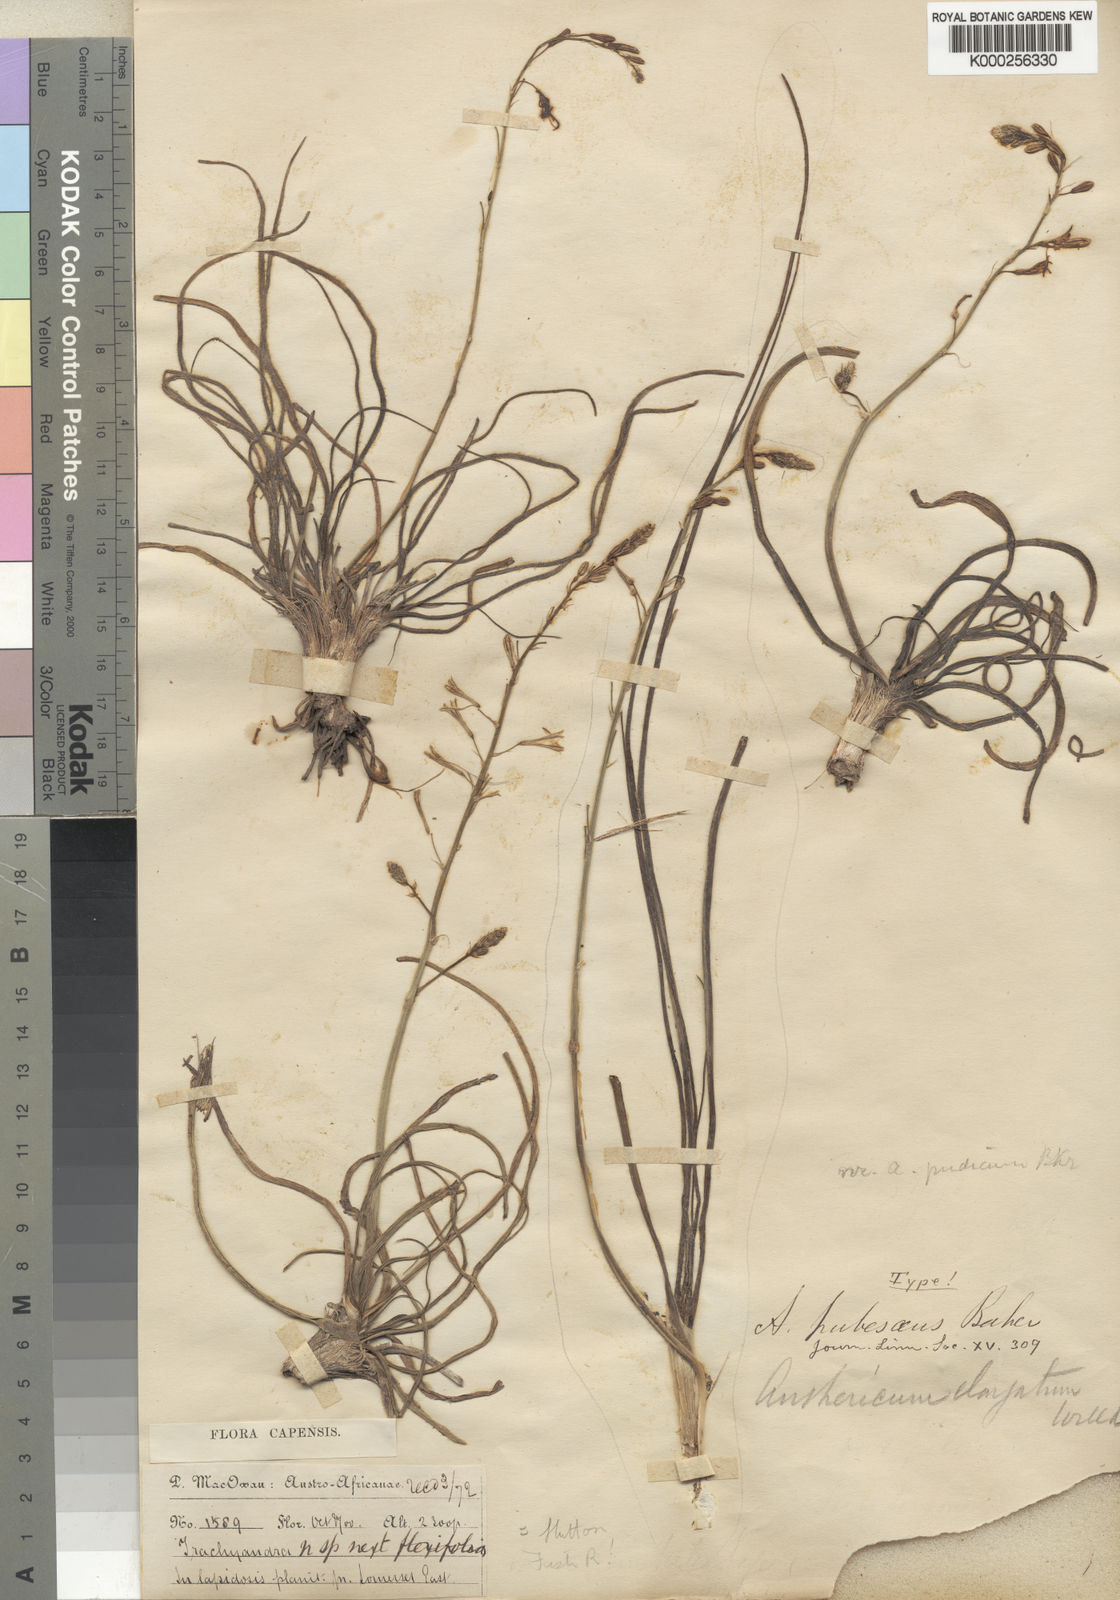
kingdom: Plantae
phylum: Tracheophyta
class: Liliopsida
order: Asparagales
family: Asphodelaceae
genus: Trachyandra
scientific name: Trachyandra affinis
